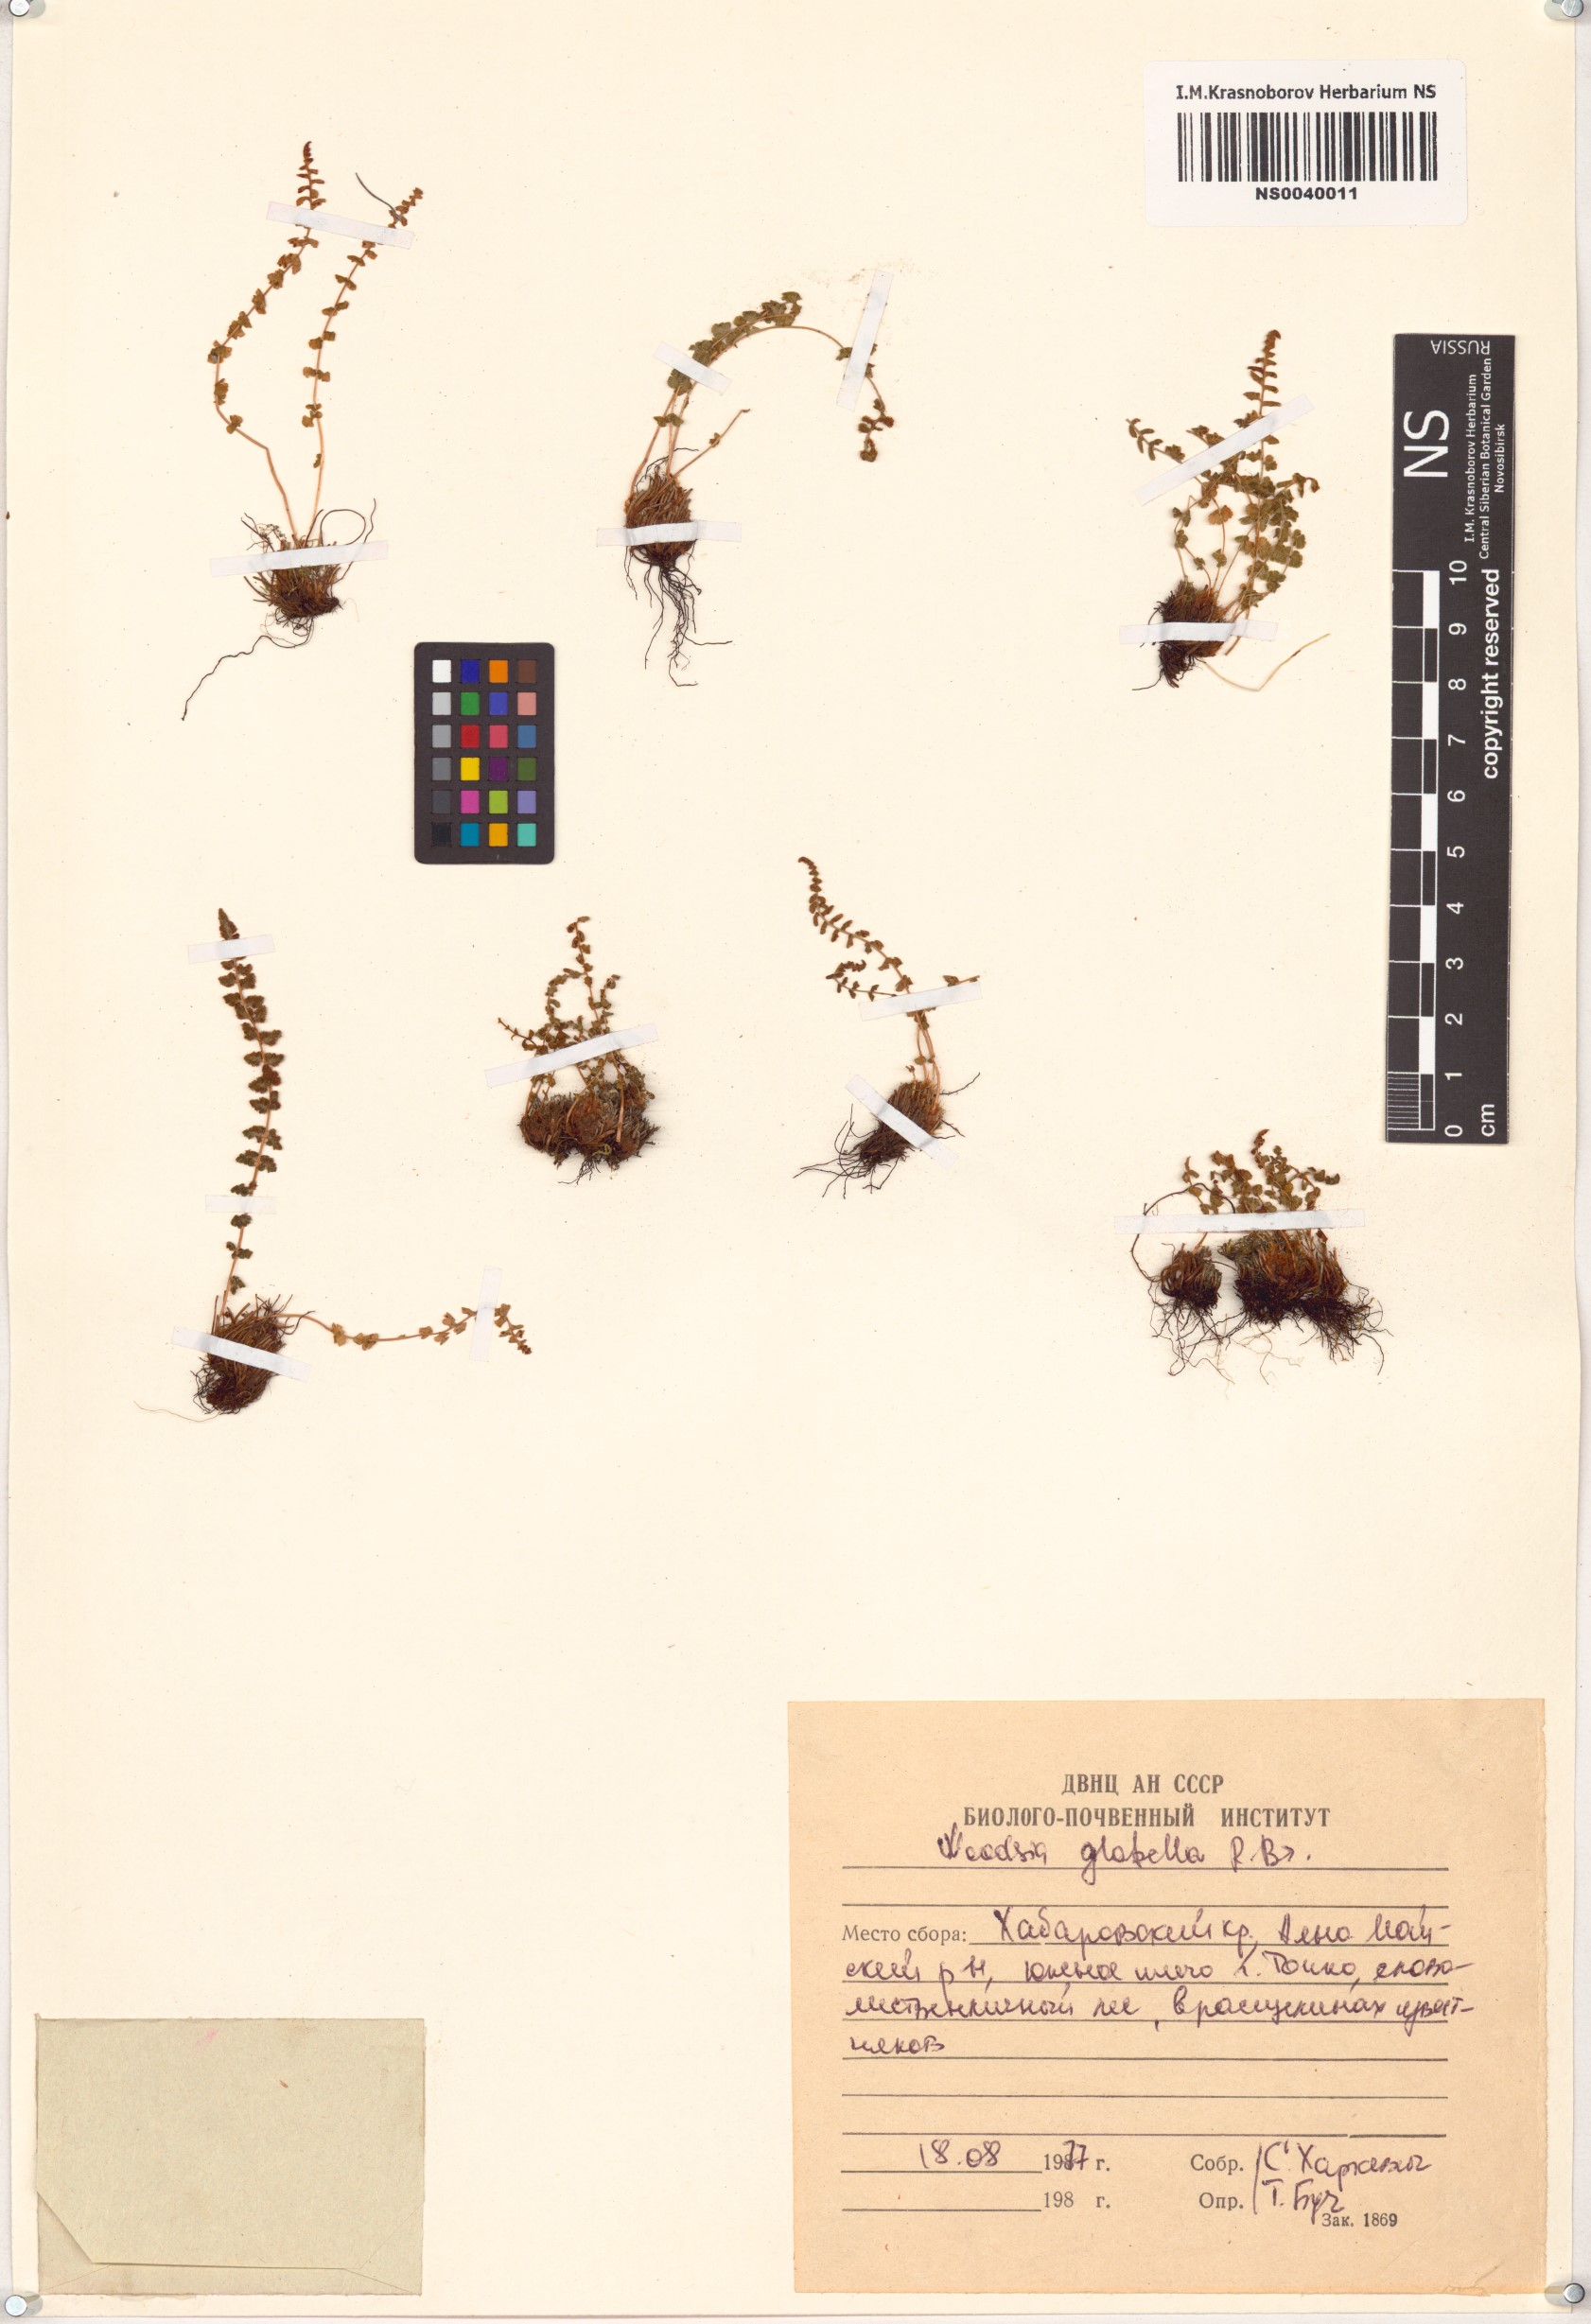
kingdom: Plantae
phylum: Tracheophyta
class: Polypodiopsida
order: Polypodiales
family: Woodsiaceae
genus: Woodsia
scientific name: Woodsia glabella
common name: Smooth woodsia
